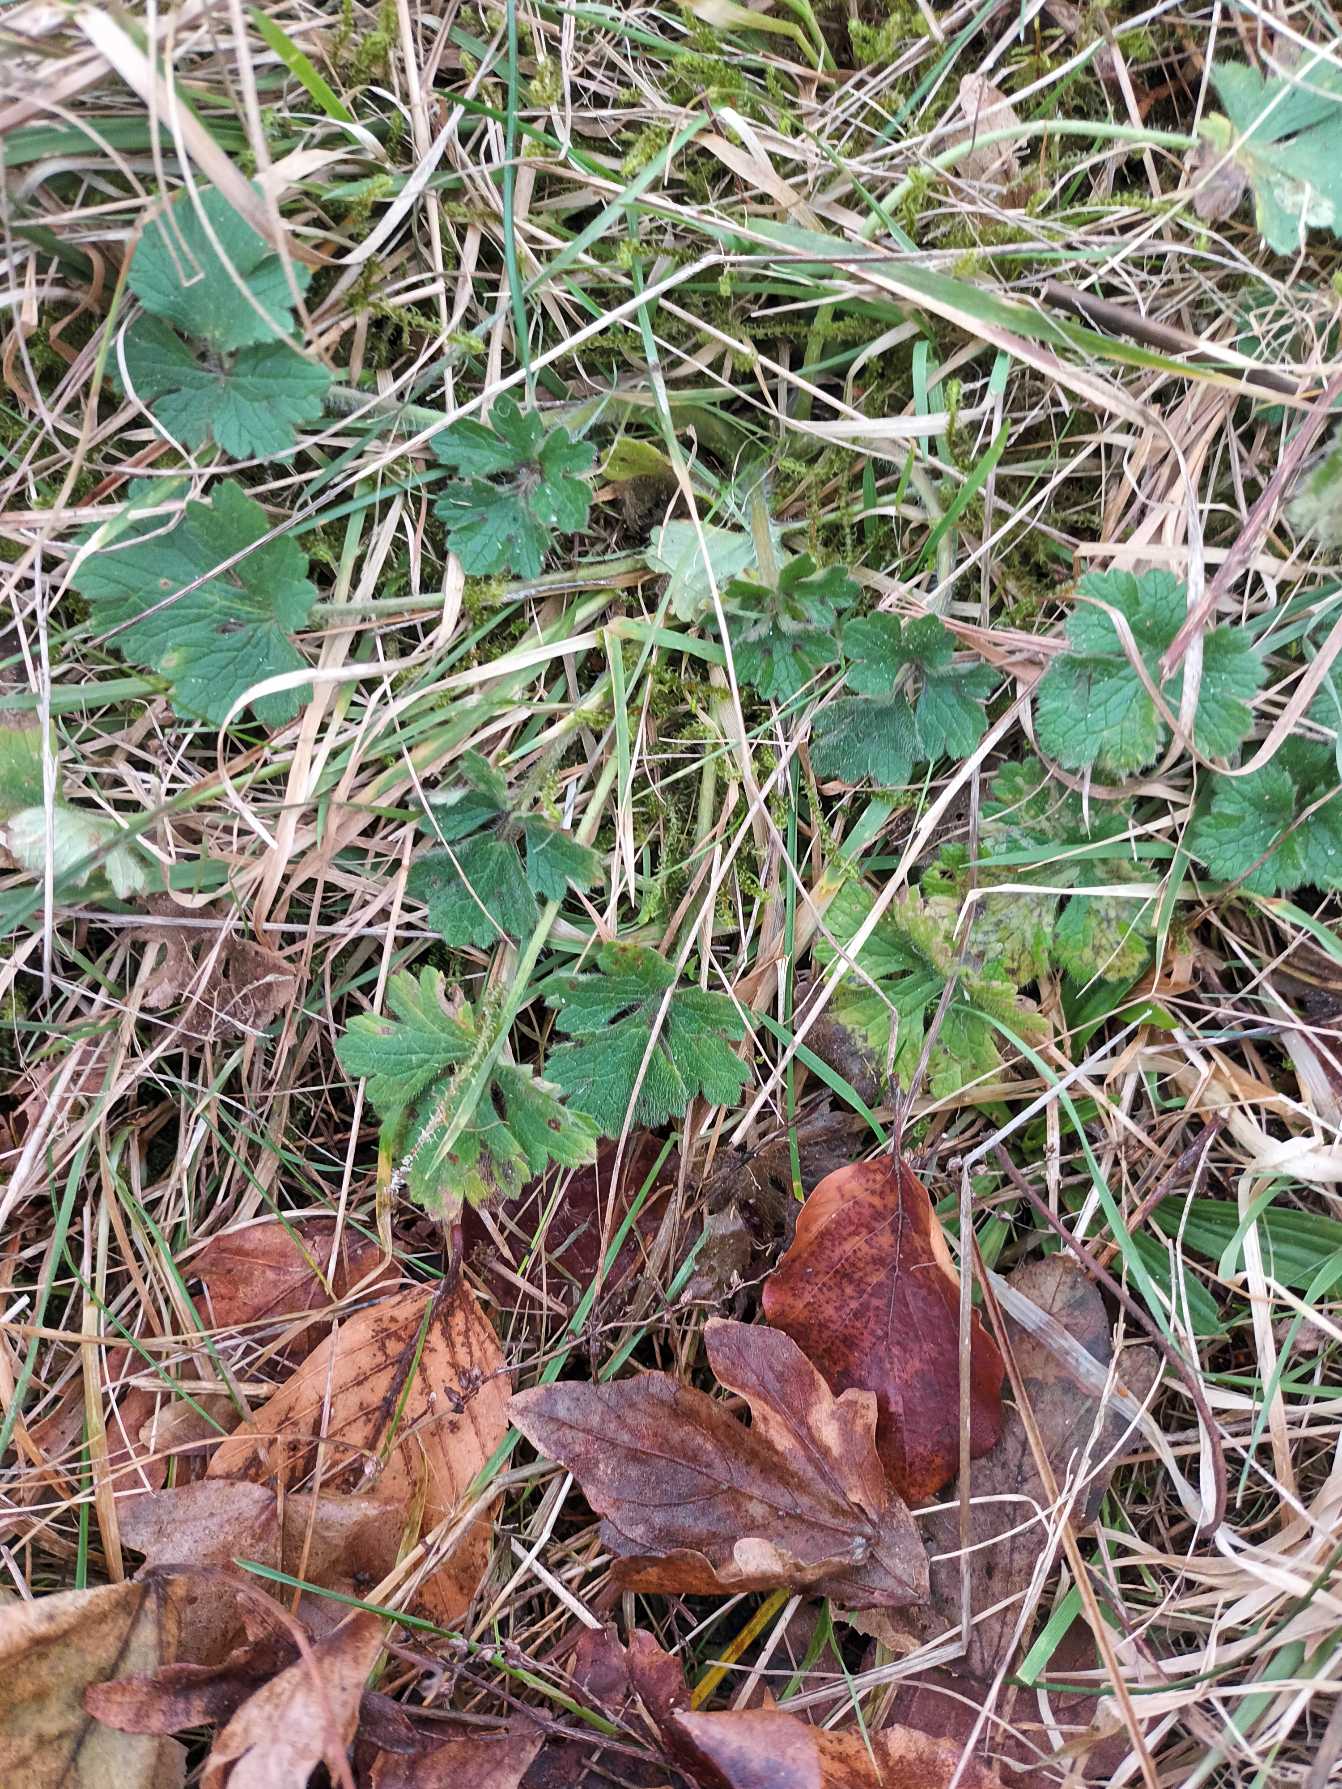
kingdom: Plantae
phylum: Tracheophyta
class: Magnoliopsida
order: Ranunculales
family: Ranunculaceae
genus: Ranunculus
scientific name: Ranunculus bulbosus
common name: Knold-ranunkel
